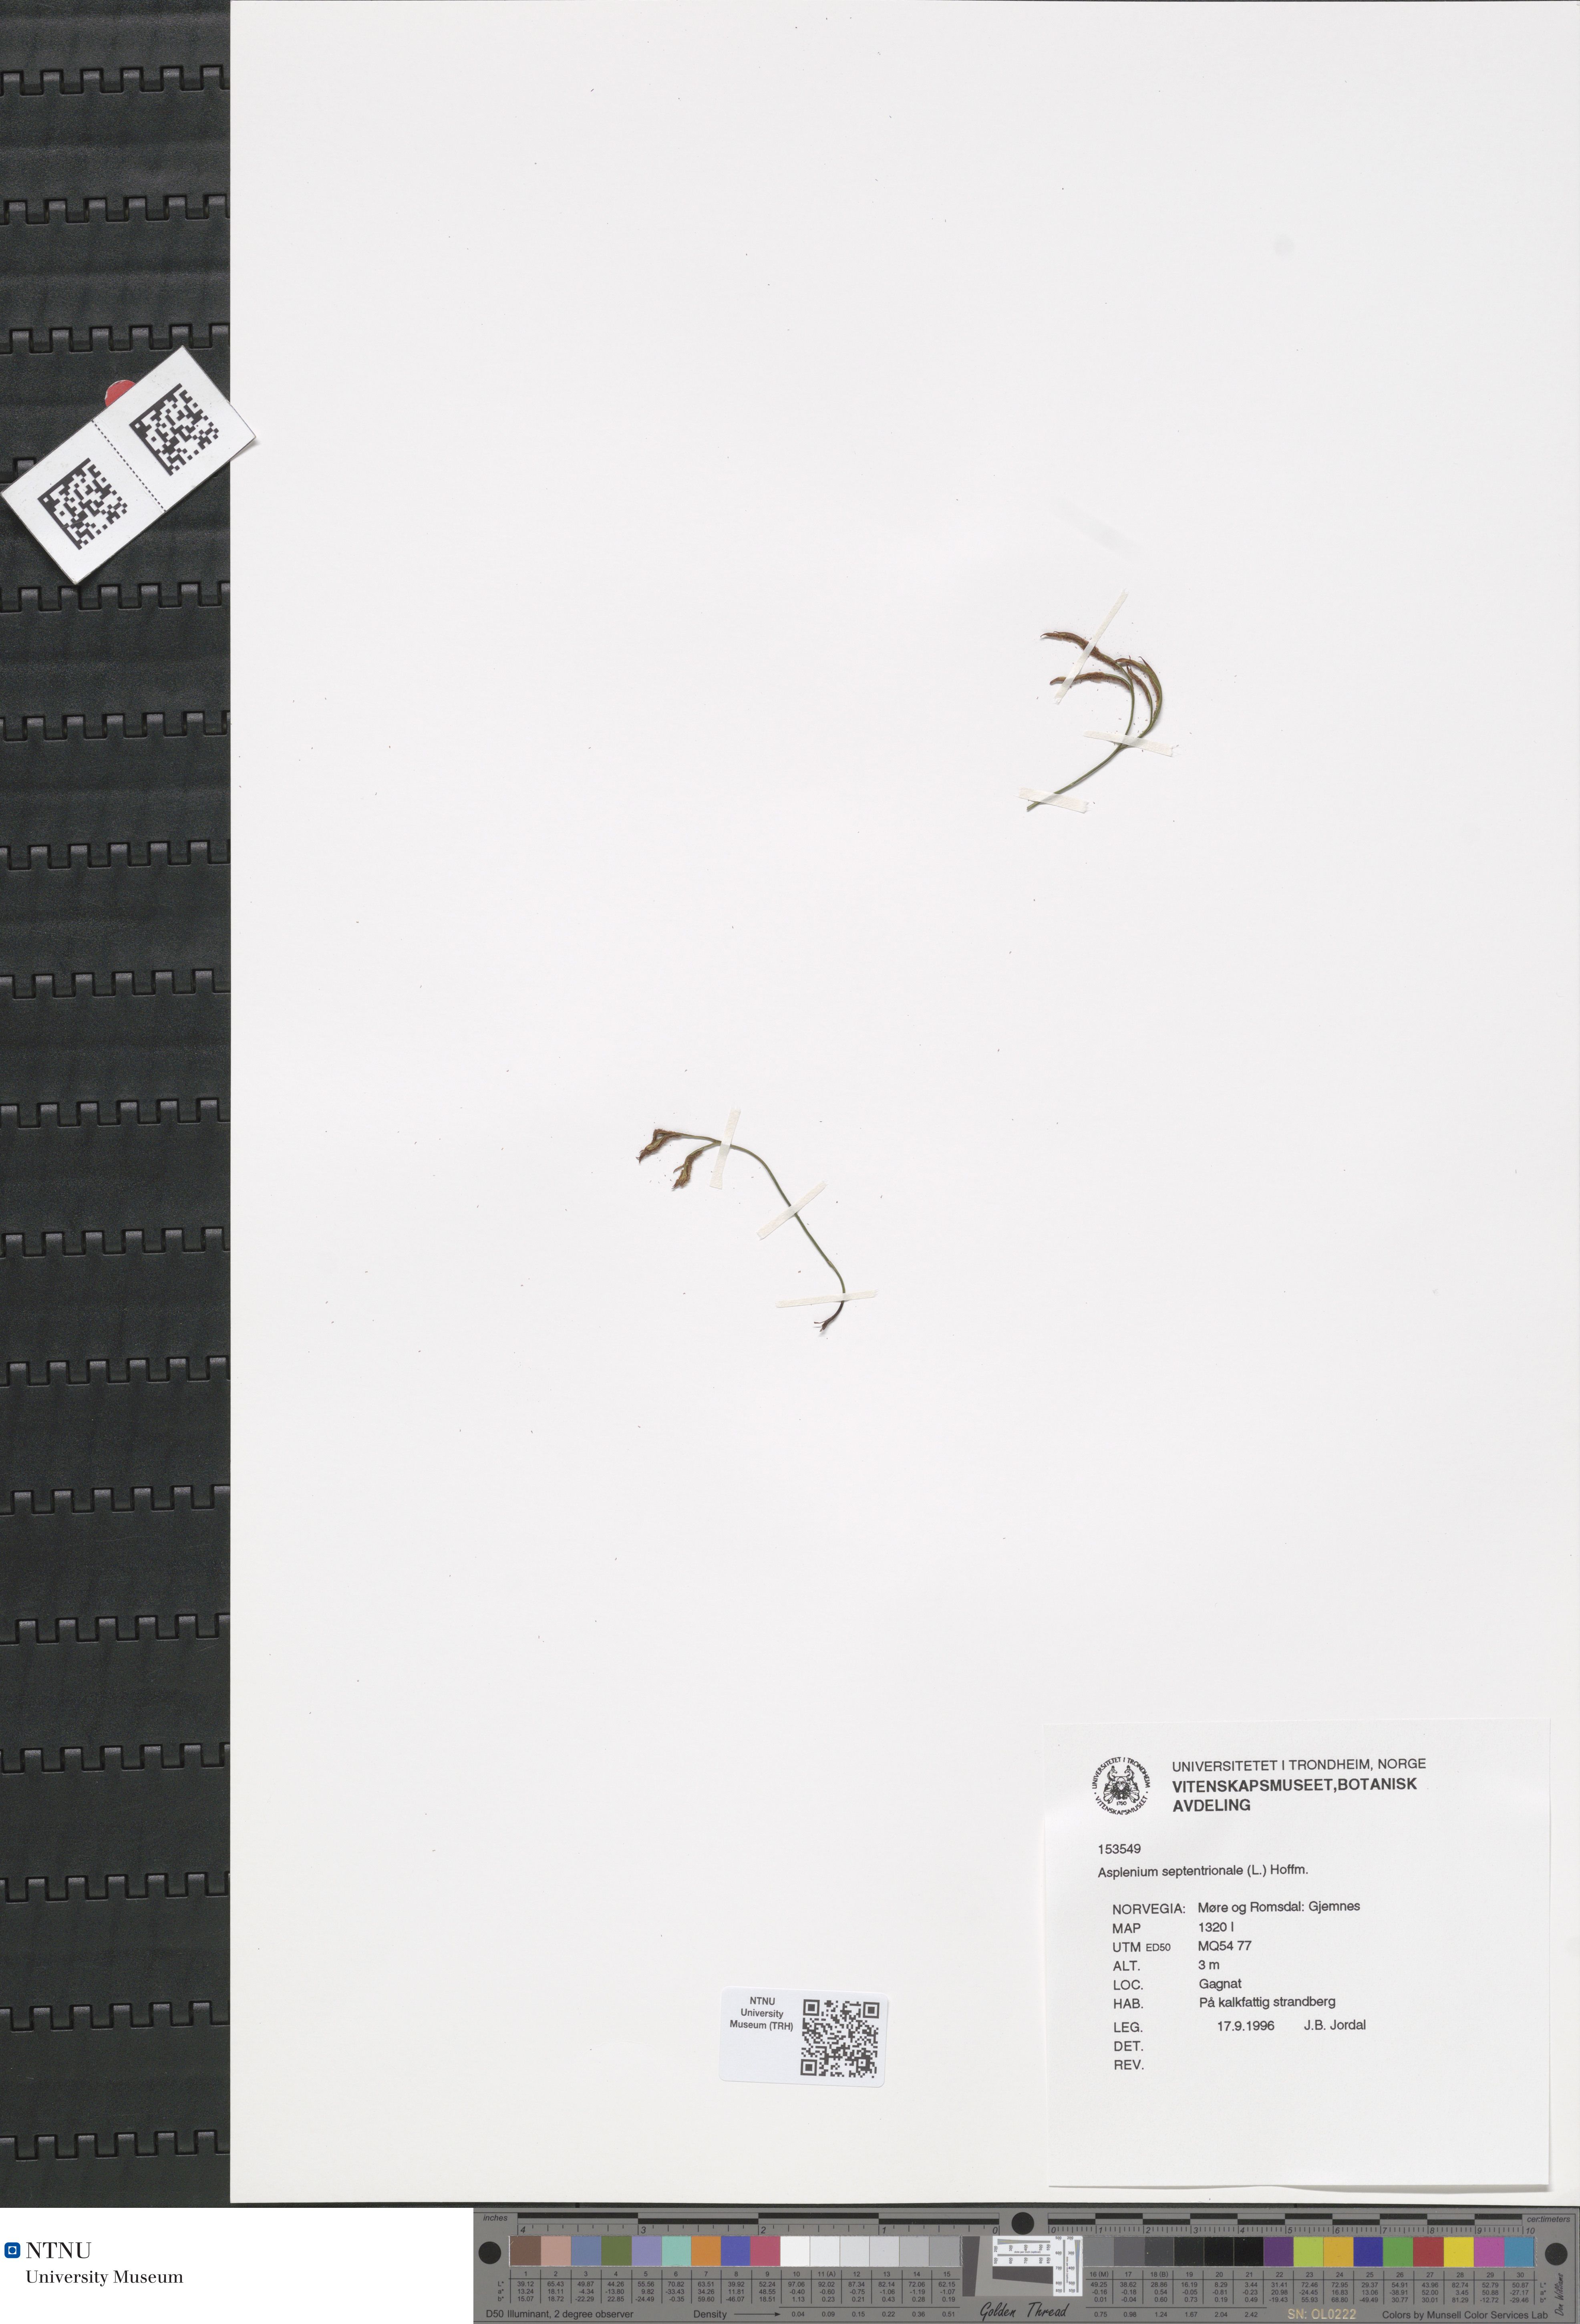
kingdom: Plantae
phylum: Tracheophyta
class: Polypodiopsida
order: Polypodiales
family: Aspleniaceae
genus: Asplenium
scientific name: Asplenium septentrionale
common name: Forked spleenwort
